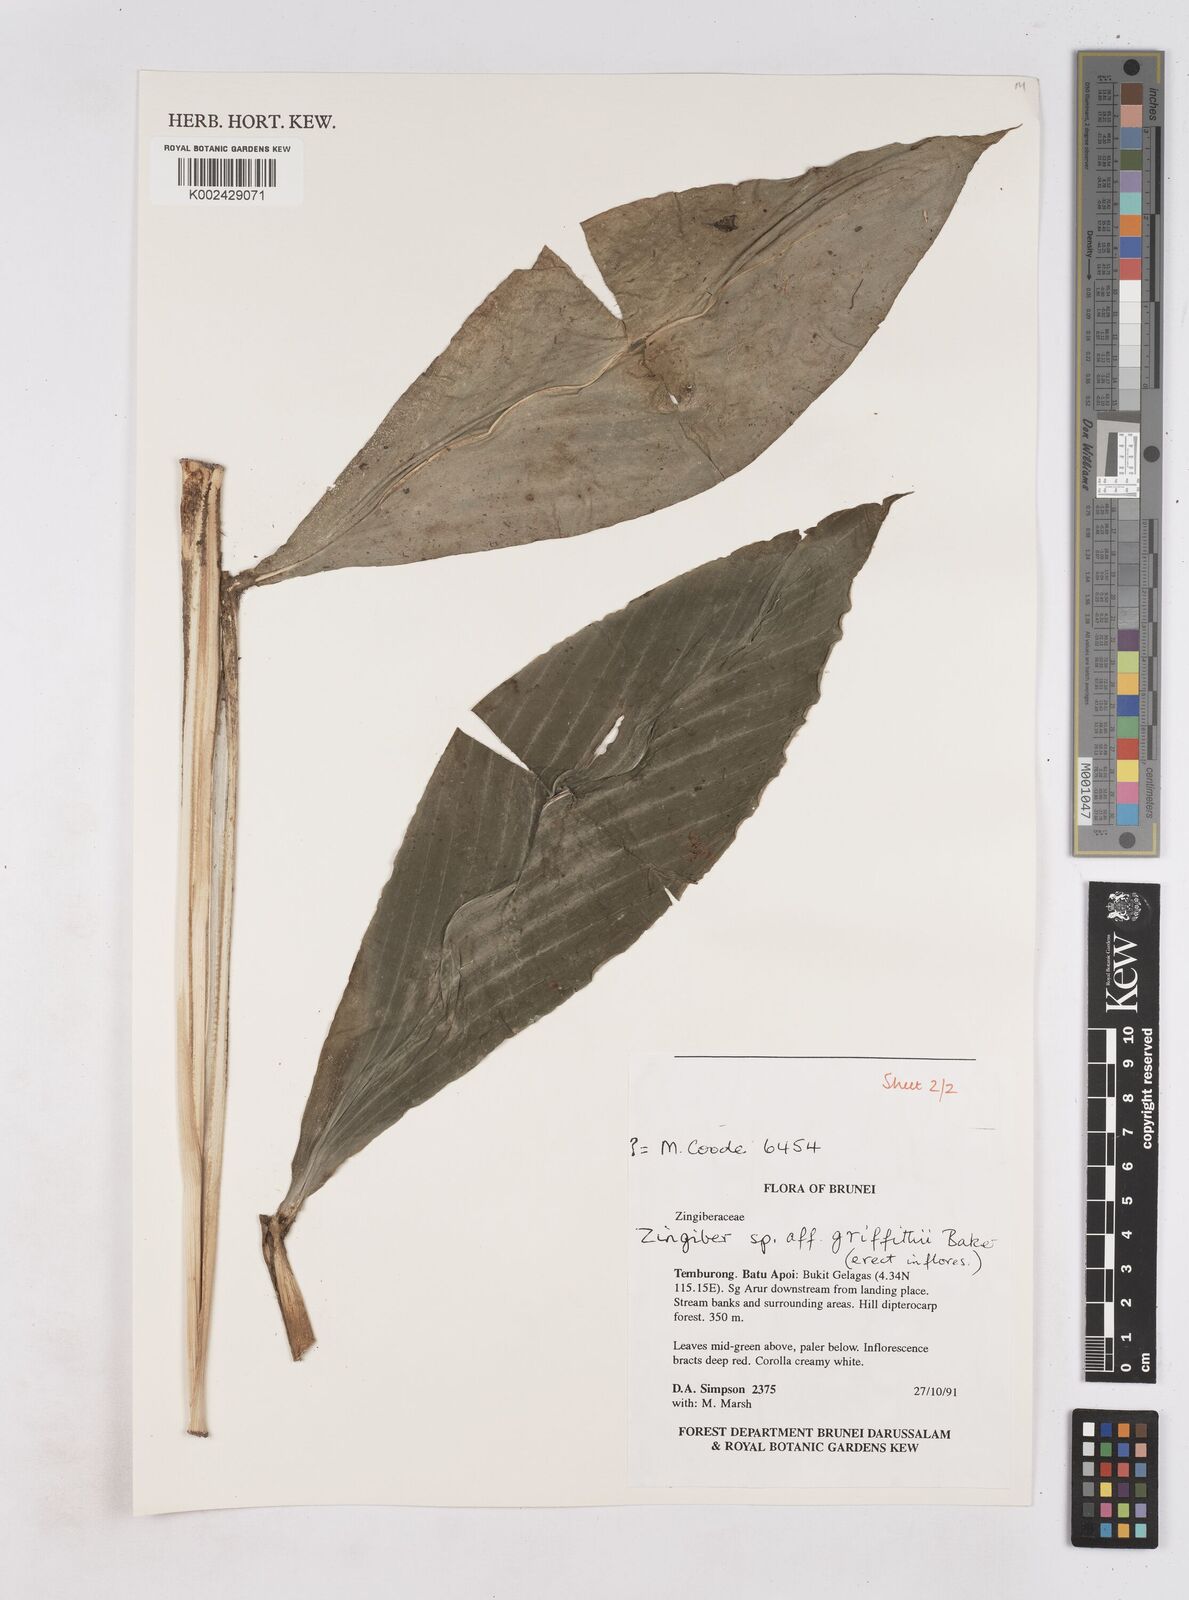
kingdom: Plantae
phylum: Tracheophyta
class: Liliopsida
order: Zingiberales
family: Zingiberaceae
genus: Zingiber
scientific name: Zingiber griffithii
